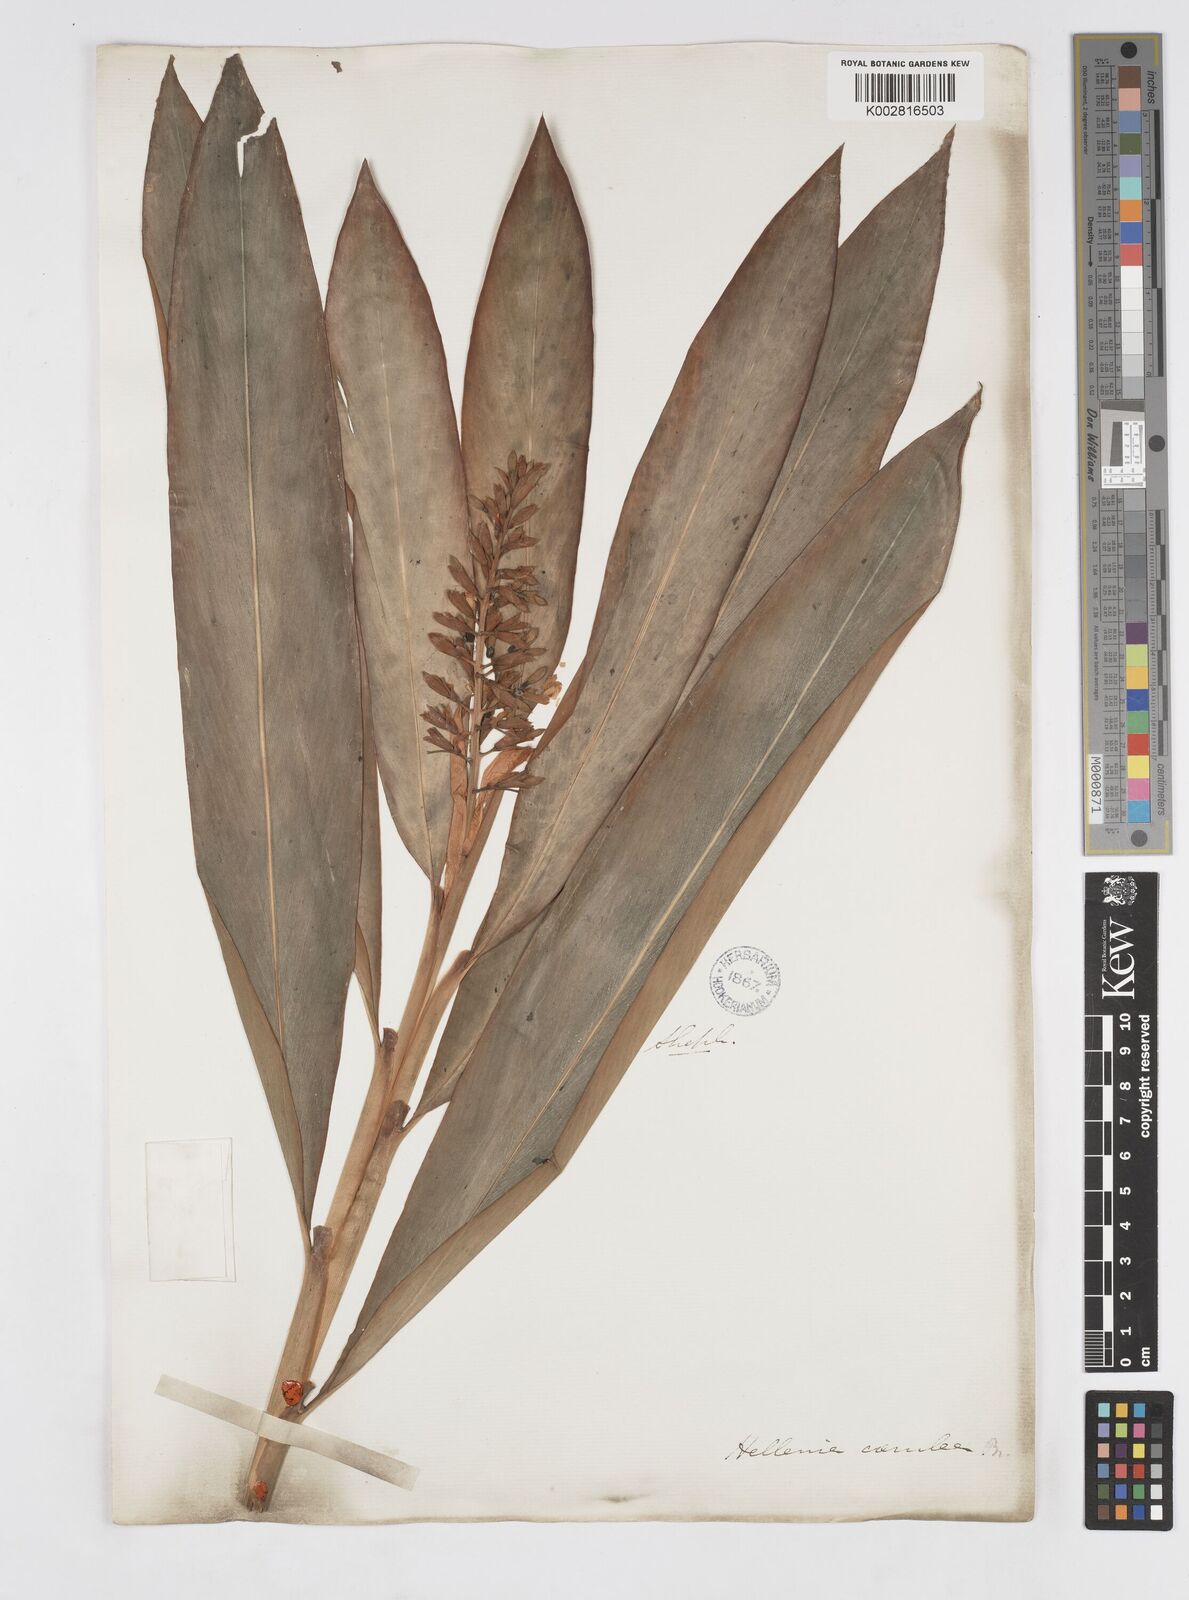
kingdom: Plantae
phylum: Tracheophyta
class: Liliopsida
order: Zingiberales
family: Zingiberaceae
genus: Alpinia
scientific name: Alpinia
